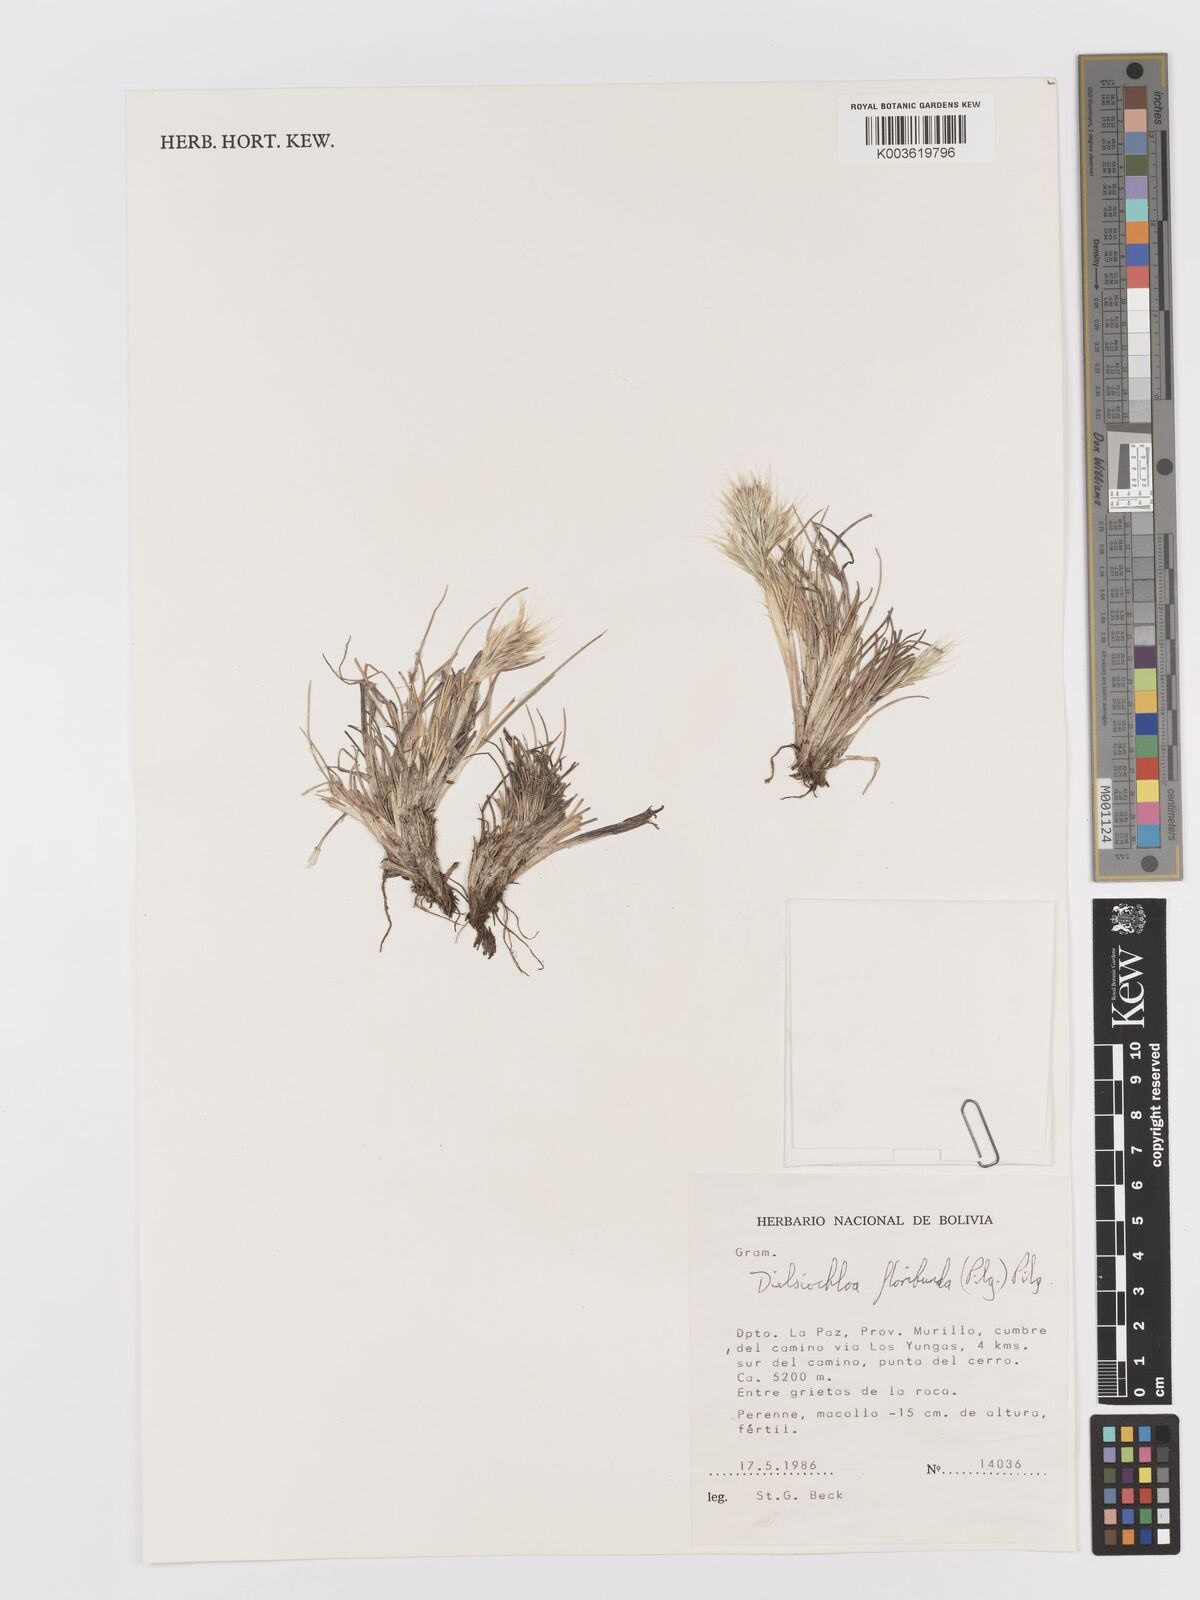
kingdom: Plantae
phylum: Tracheophyta
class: Liliopsida
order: Poales
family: Poaceae
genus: Festuca
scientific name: Festuca floribunda
